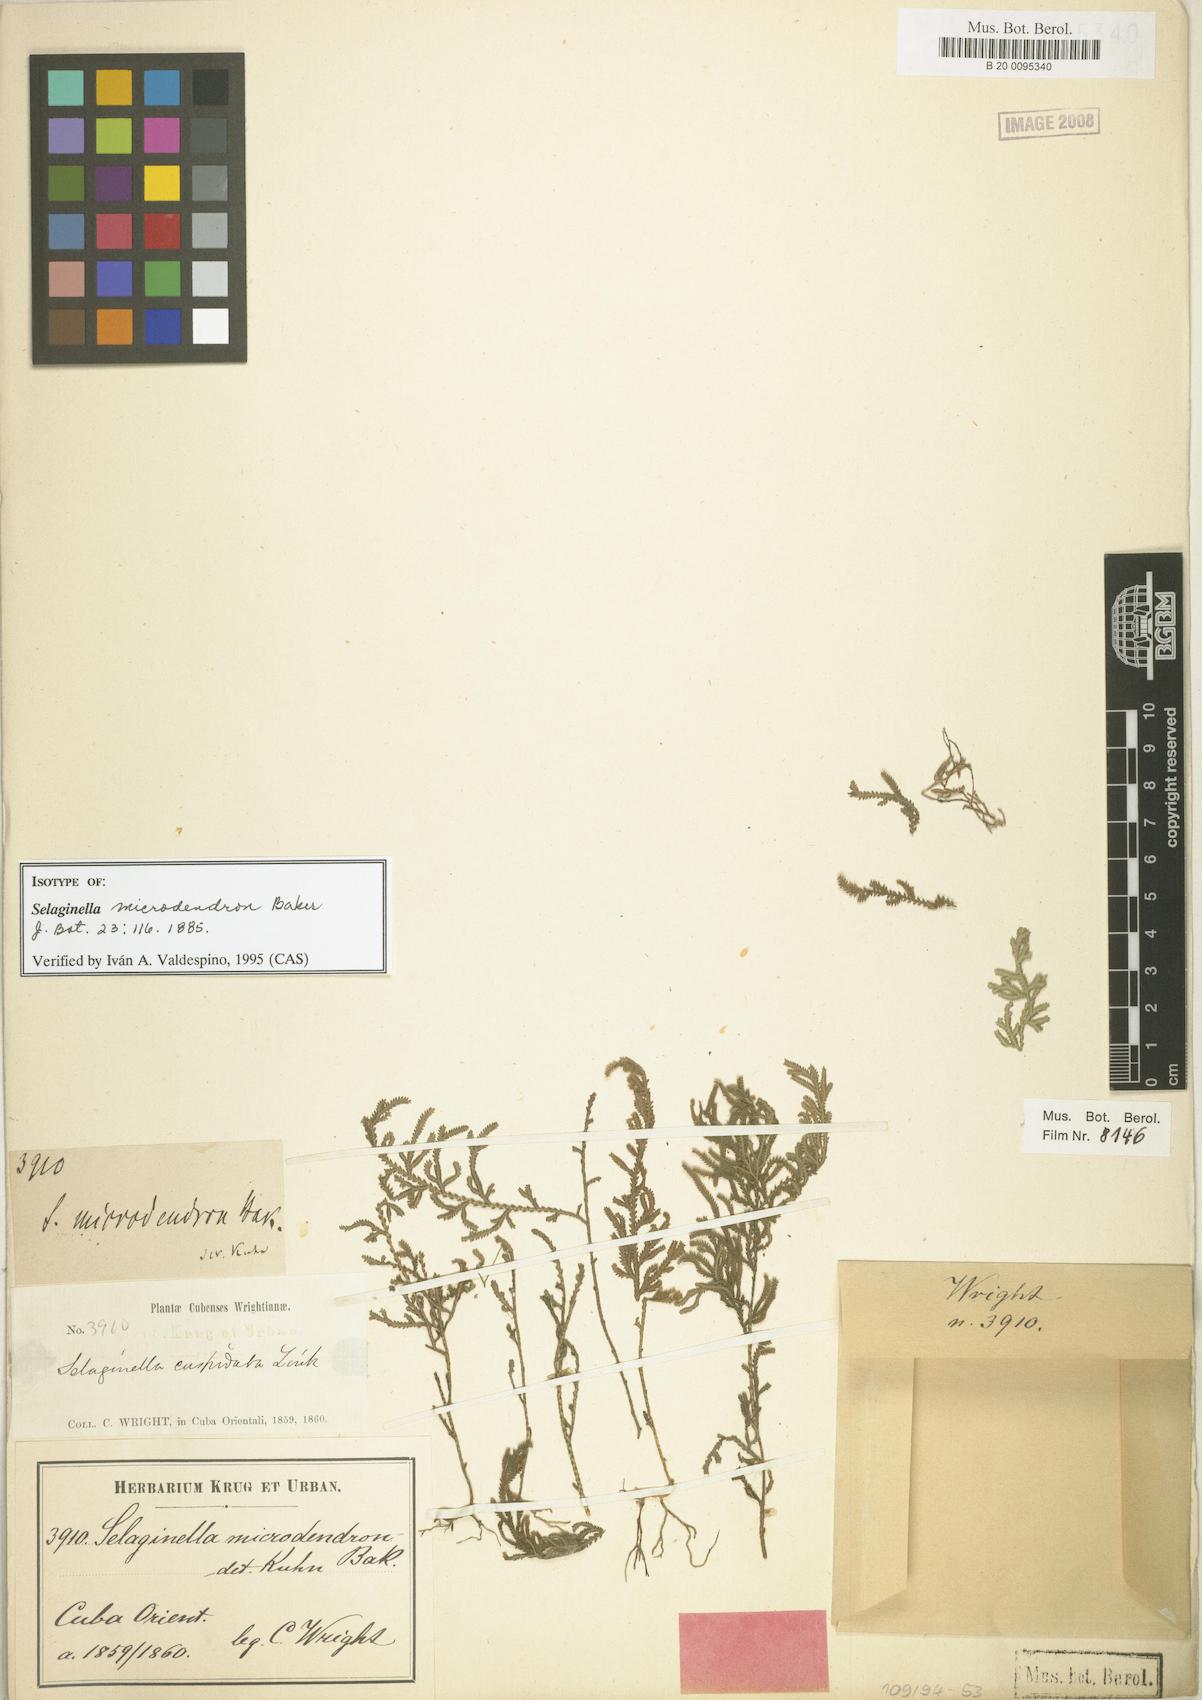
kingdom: Plantae
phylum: Tracheophyta
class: Lycopodiopsida
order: Selaginellales
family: Selaginellaceae
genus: Selaginella
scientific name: Selaginella microdendron
